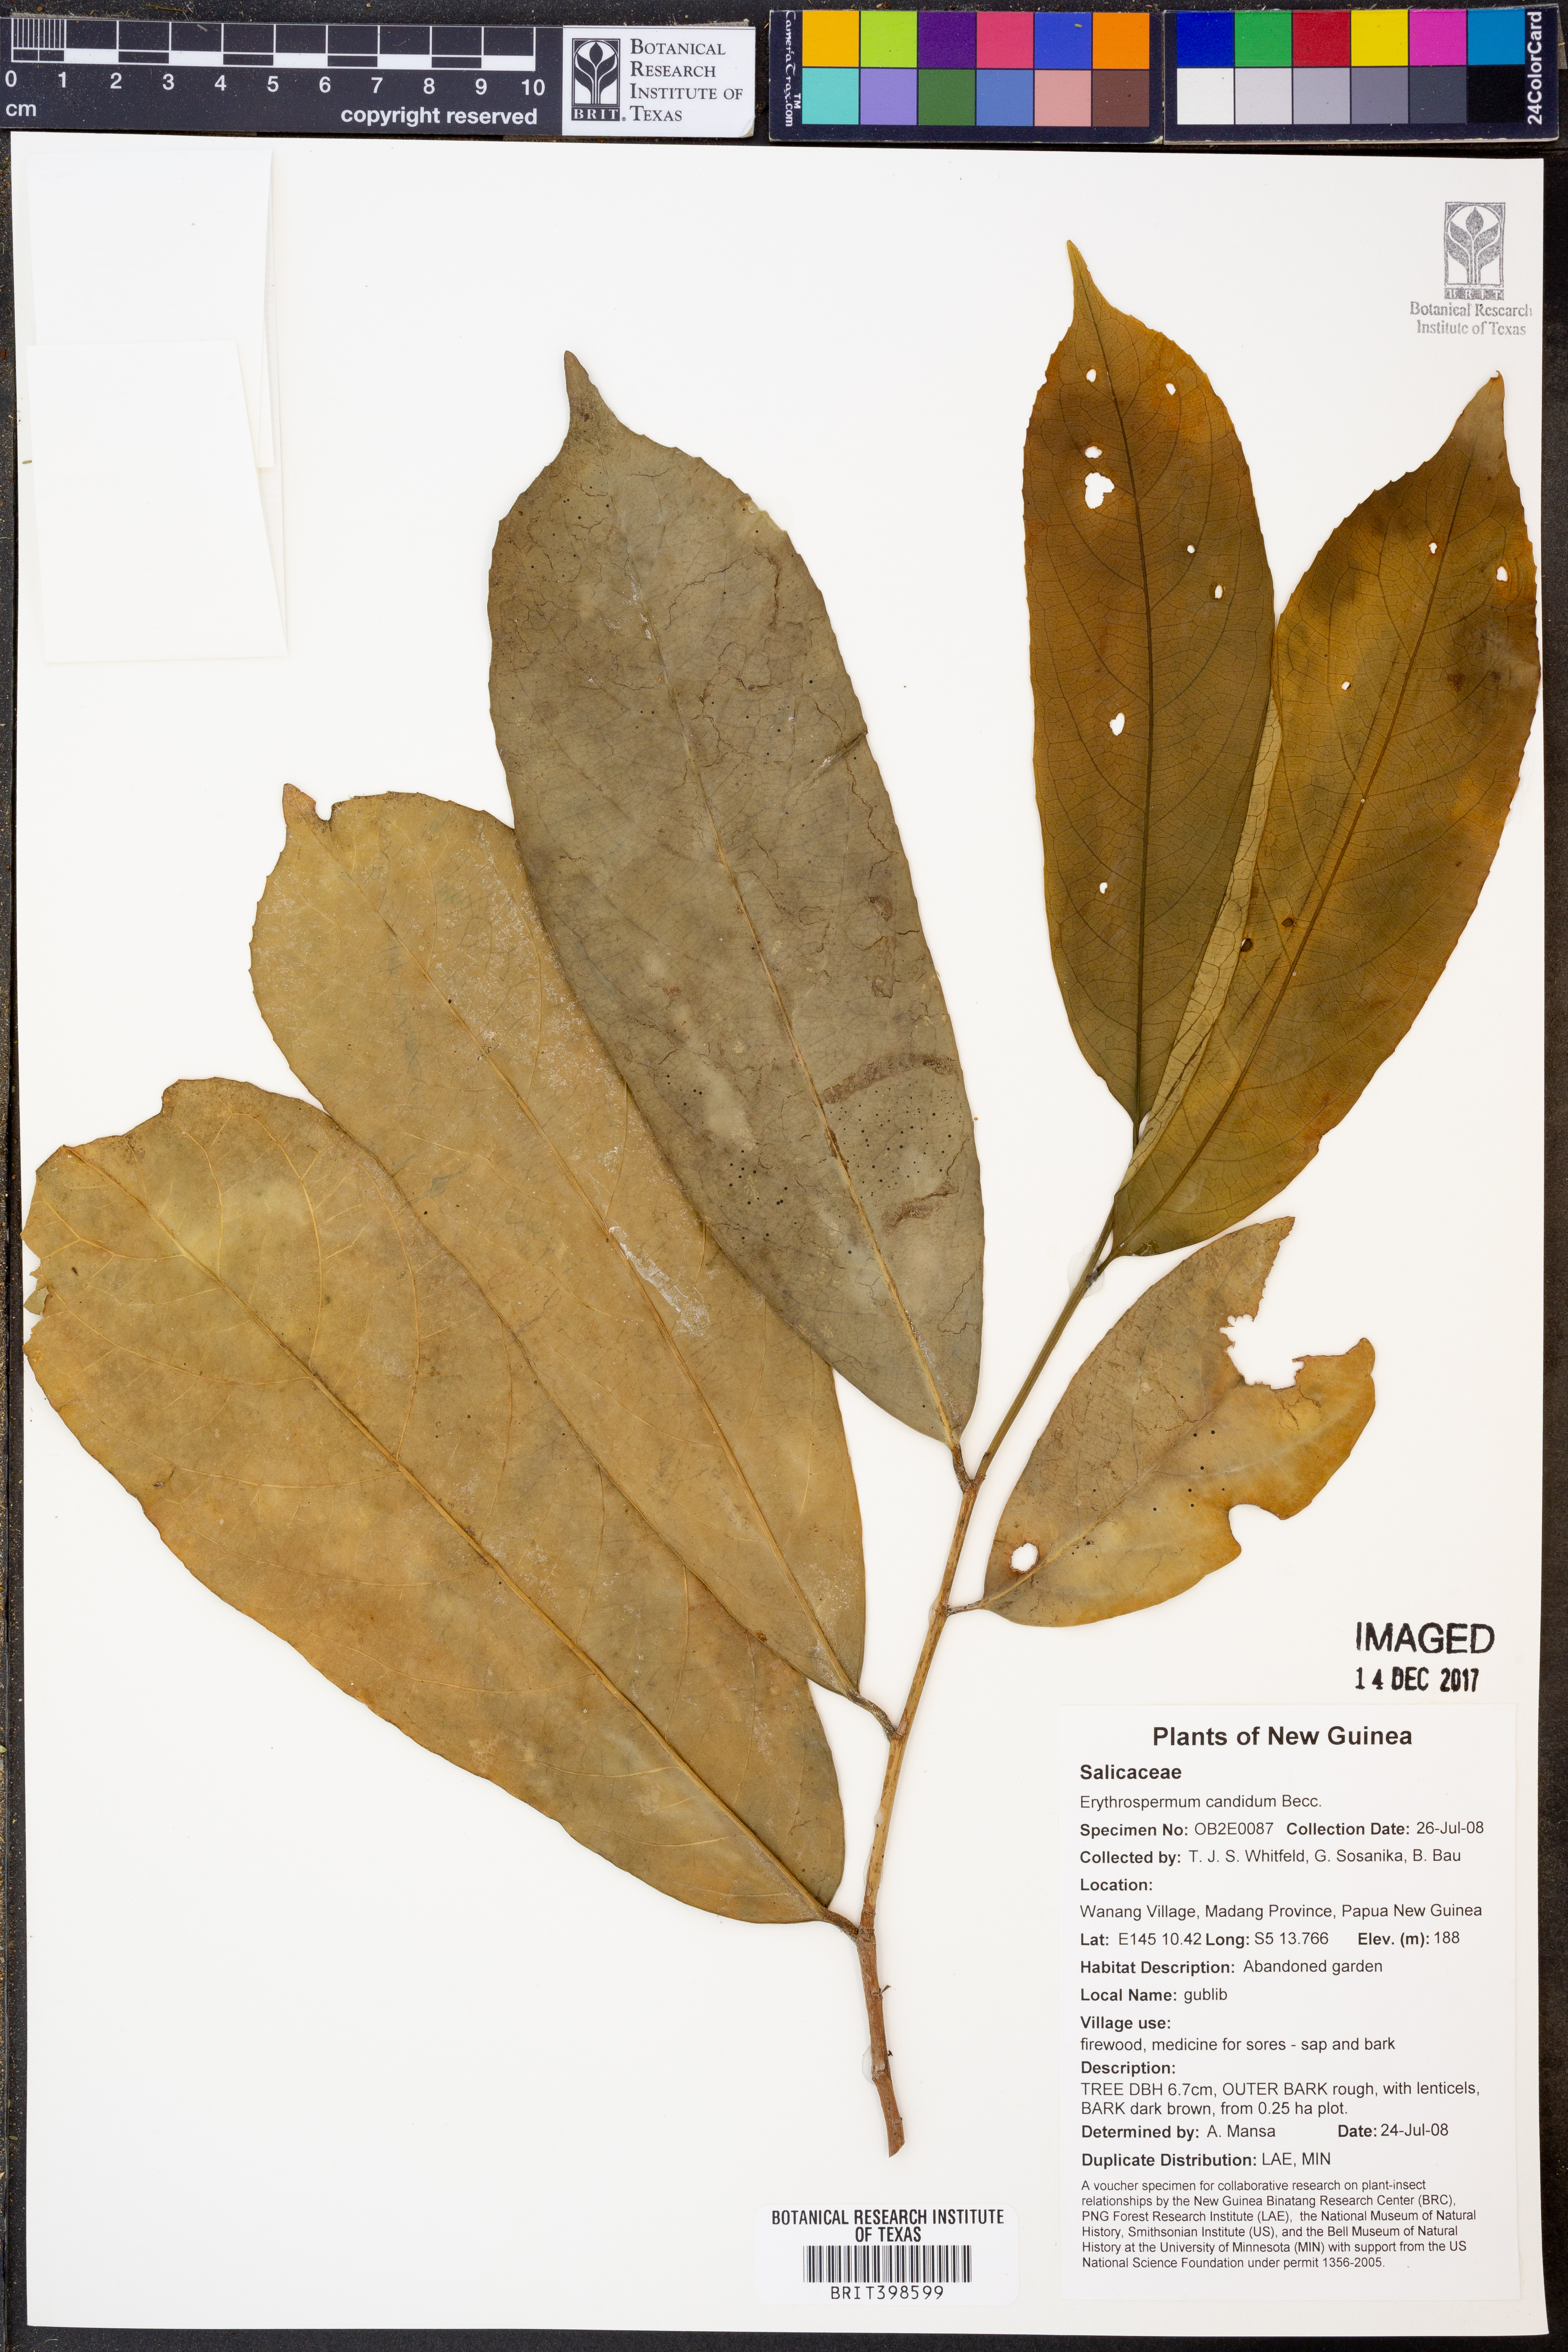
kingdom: Plantae
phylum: Tracheophyta
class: Magnoliopsida
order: Malpighiales
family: Achariaceae
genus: Erythrospermum
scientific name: Erythrospermum candidum
